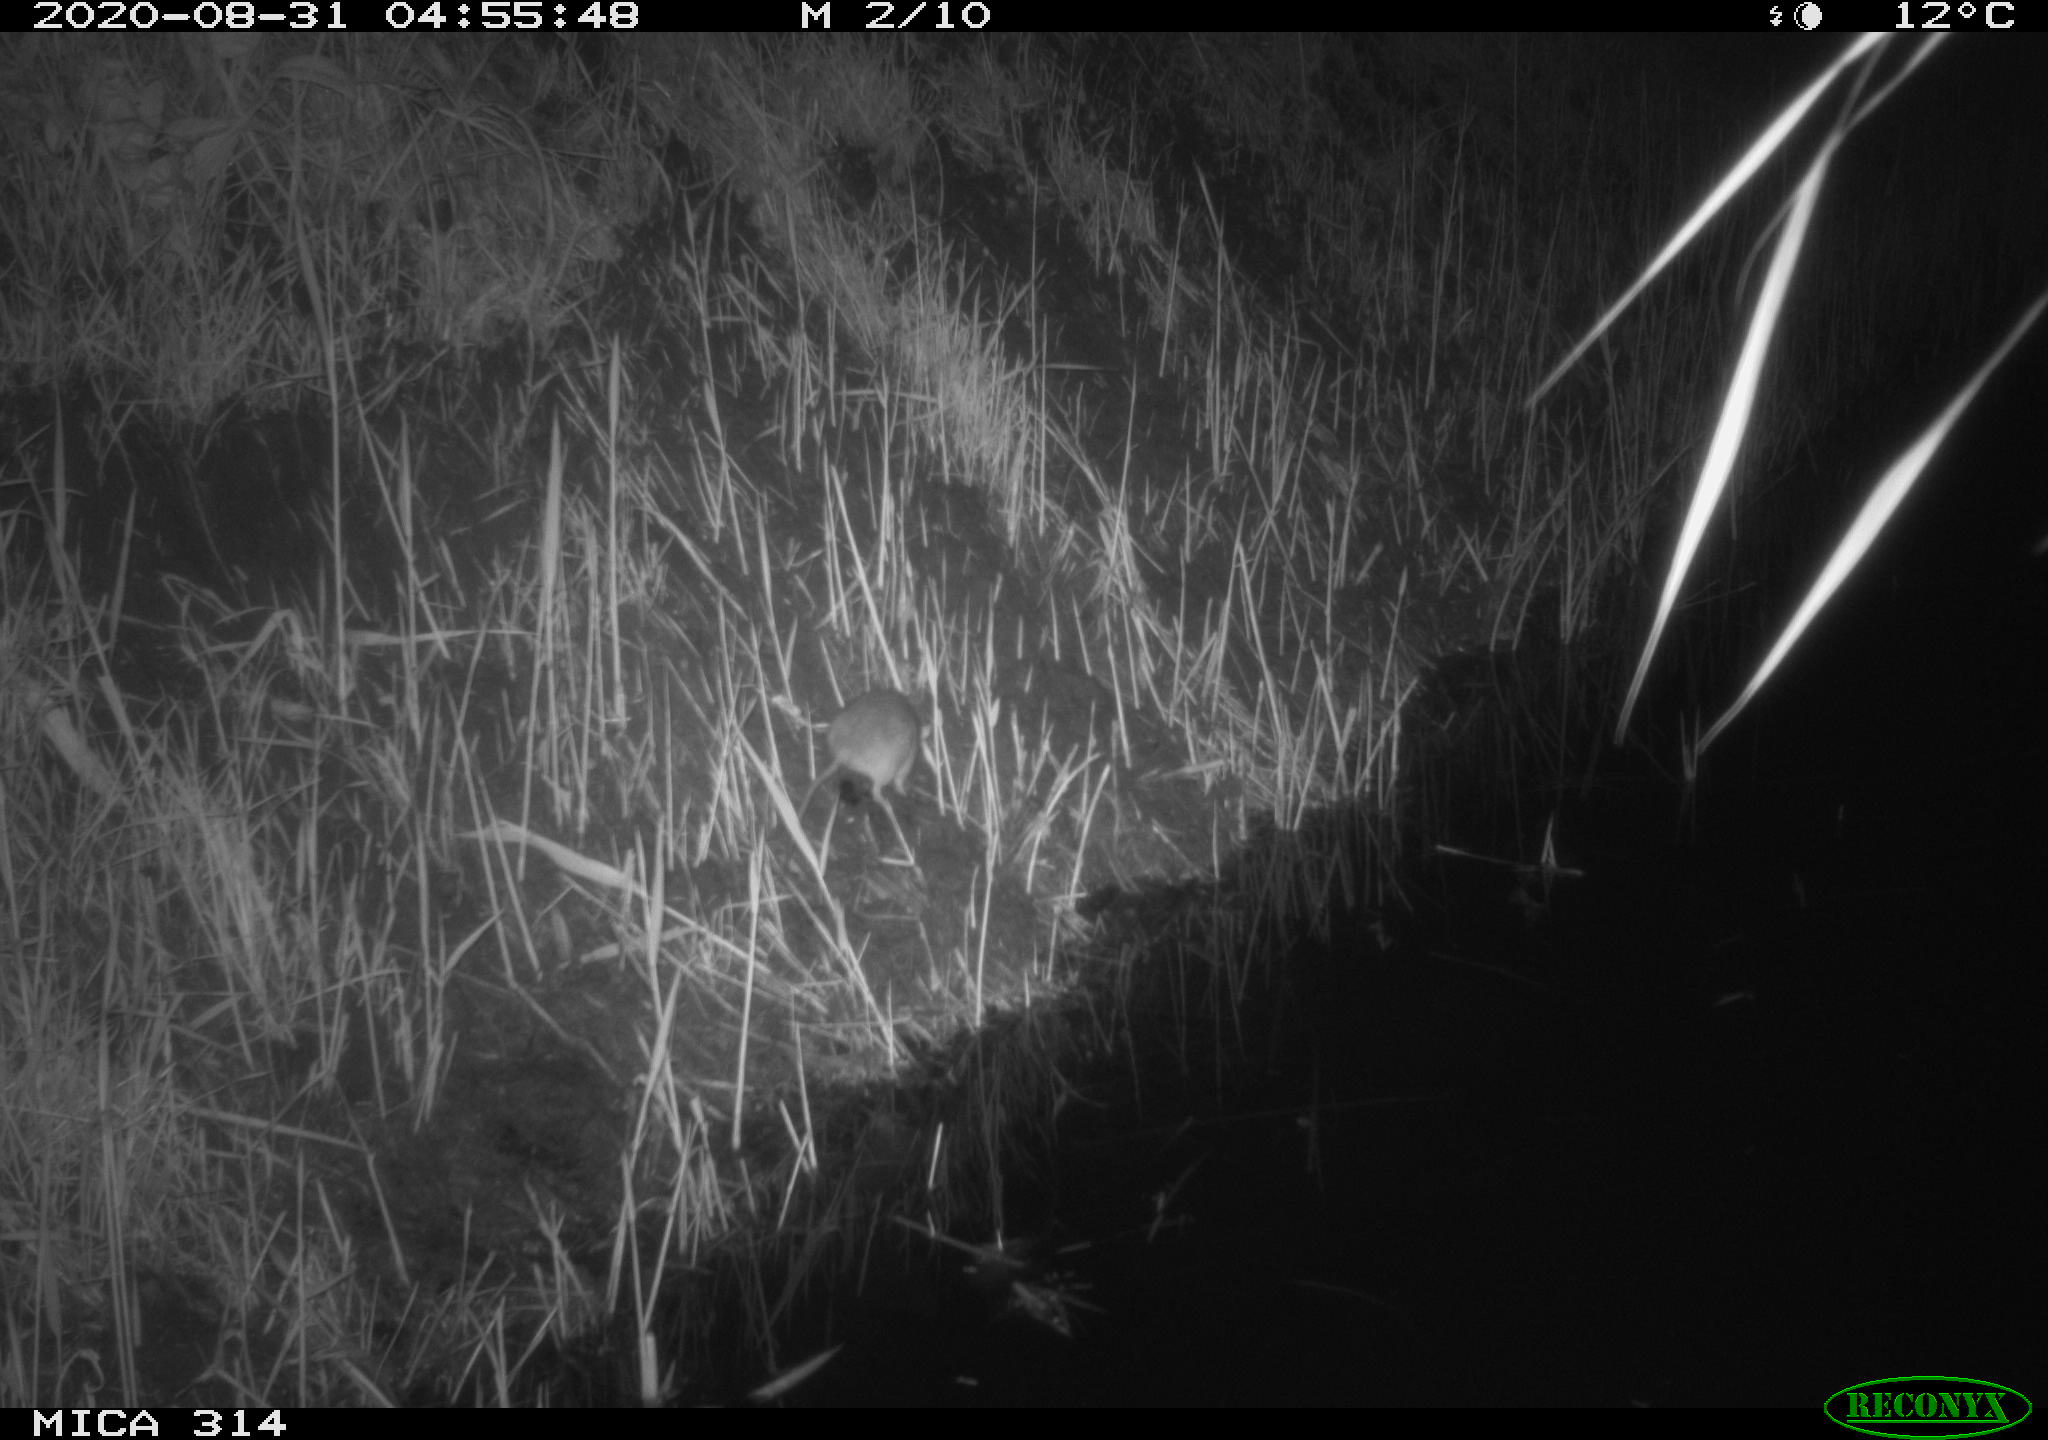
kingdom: Animalia
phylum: Chordata
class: Mammalia
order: Rodentia
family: Muridae
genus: Rattus
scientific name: Rattus norvegicus
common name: Brown rat
